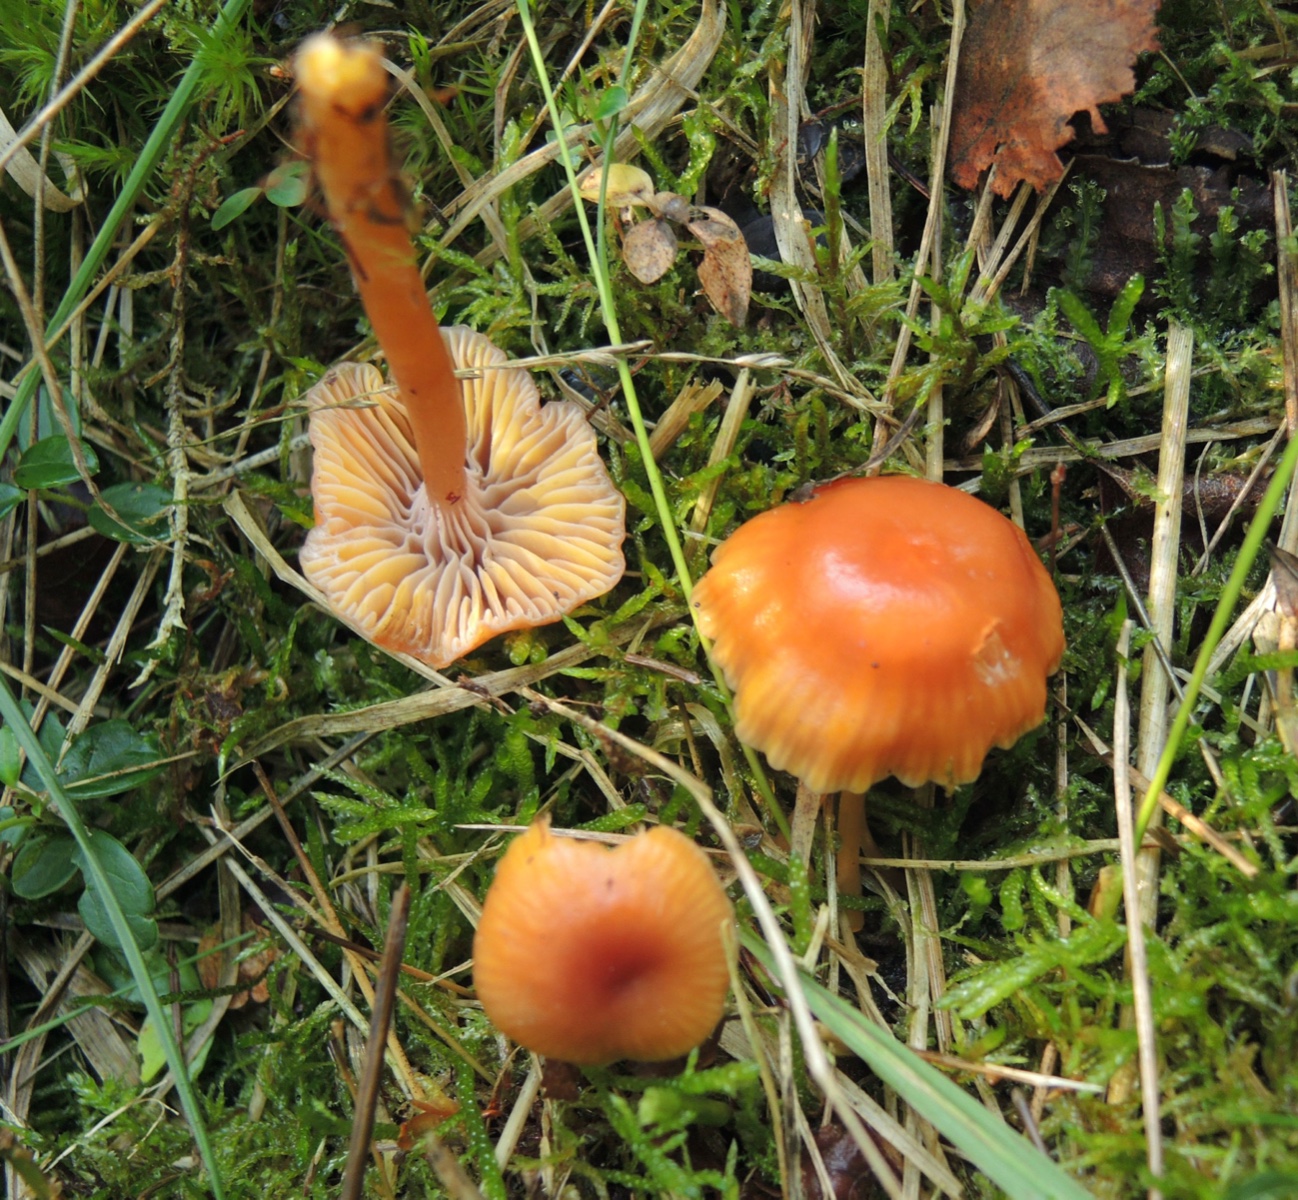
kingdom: Fungi
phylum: Basidiomycota
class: Agaricomycetes
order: Agaricales
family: Hygrophoraceae
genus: Gliophorus
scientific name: Gliophorus laetus
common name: brusk-vokshat
